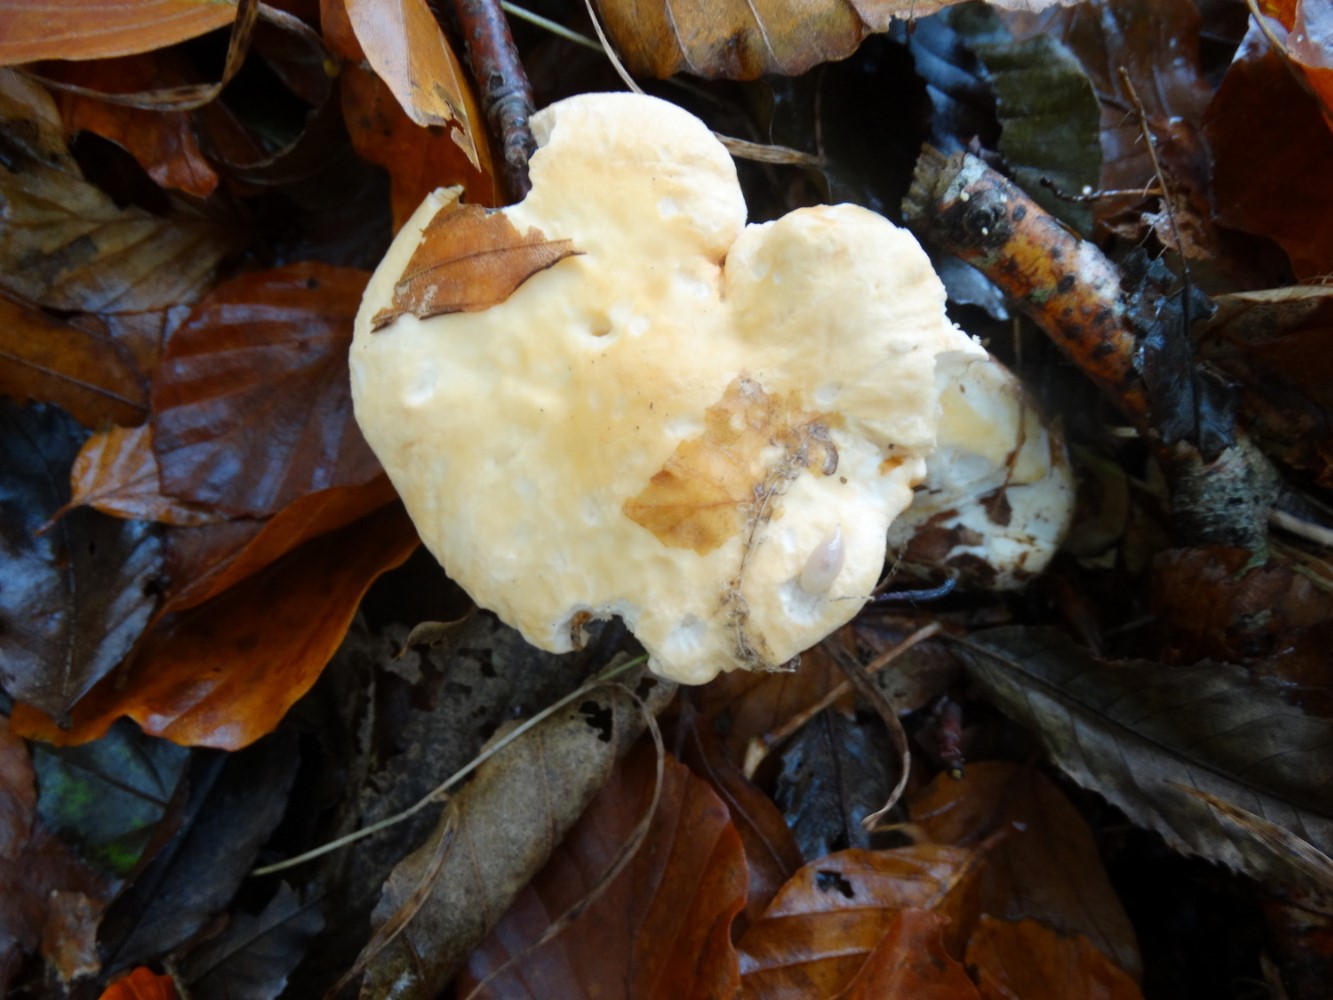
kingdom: Fungi
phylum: Basidiomycota
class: Agaricomycetes
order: Cantharellales
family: Hydnaceae
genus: Hydnum
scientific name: Hydnum repandum
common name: almindelig pigsvamp
